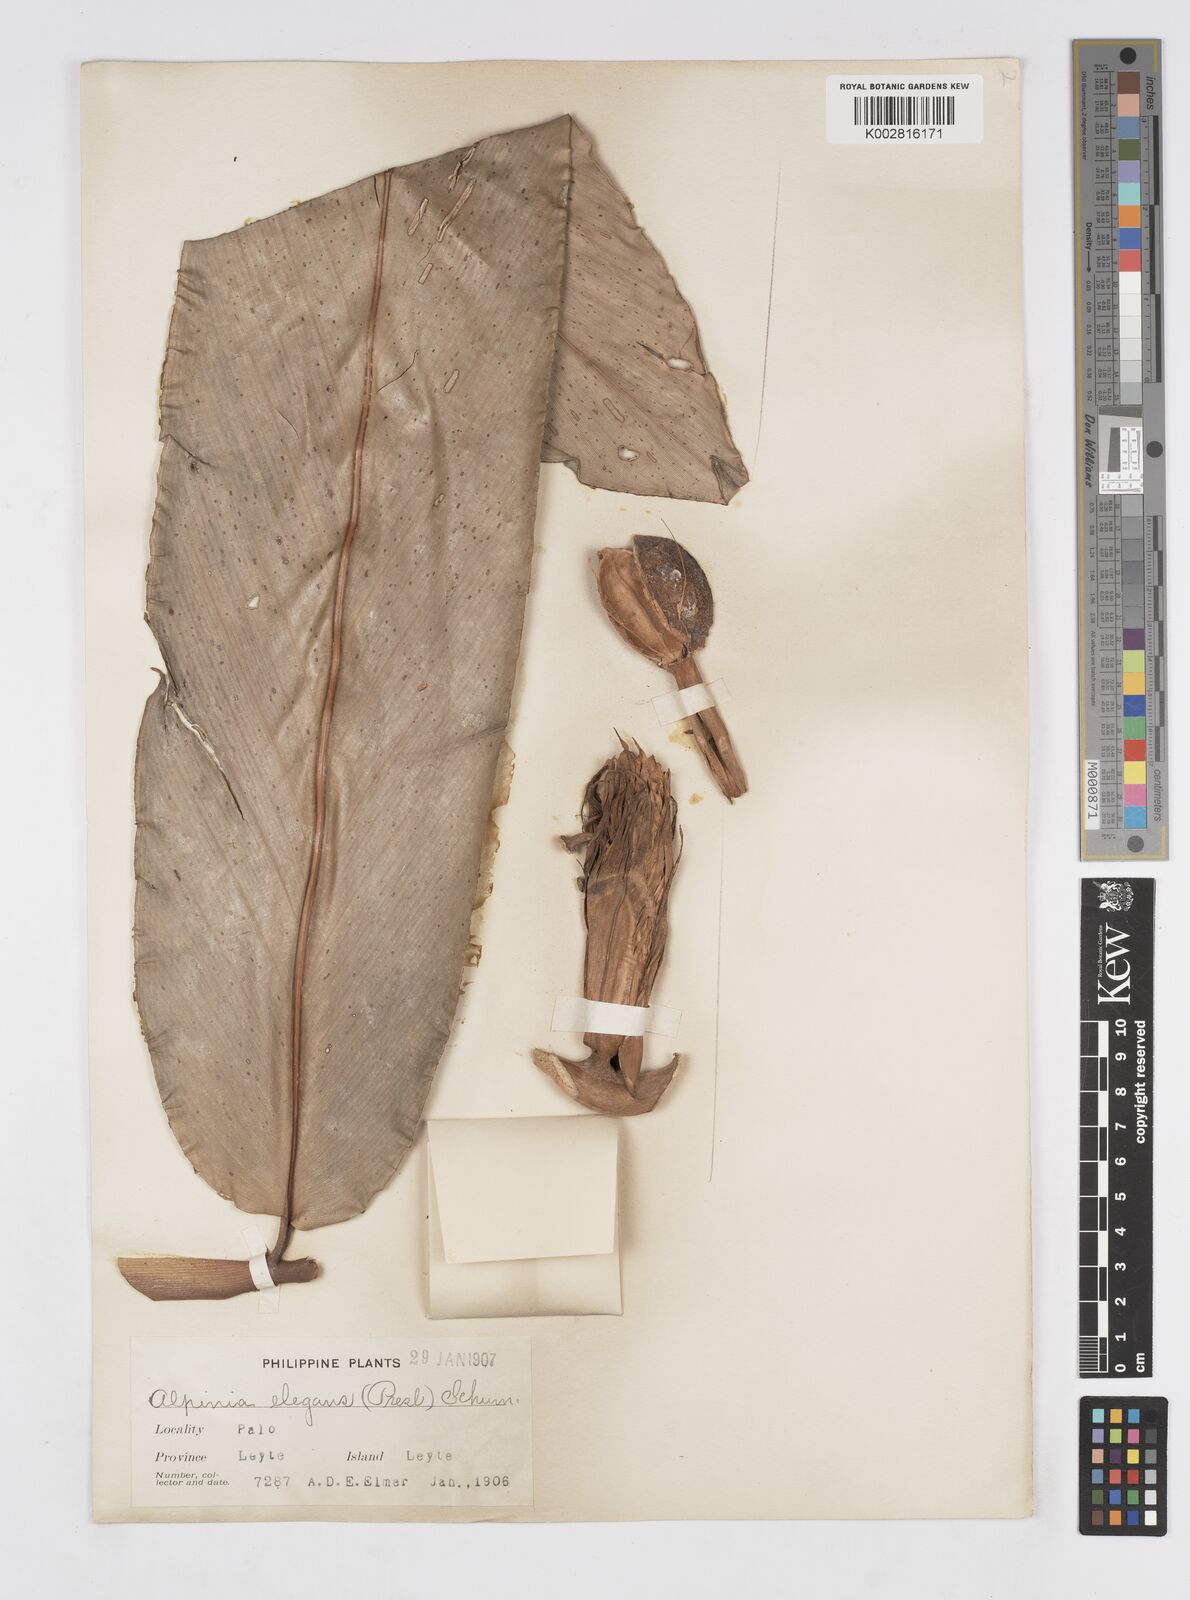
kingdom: Plantae
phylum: Tracheophyta
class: Liliopsida
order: Zingiberales
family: Zingiberaceae
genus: Alpinia
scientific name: Alpinia elegans
